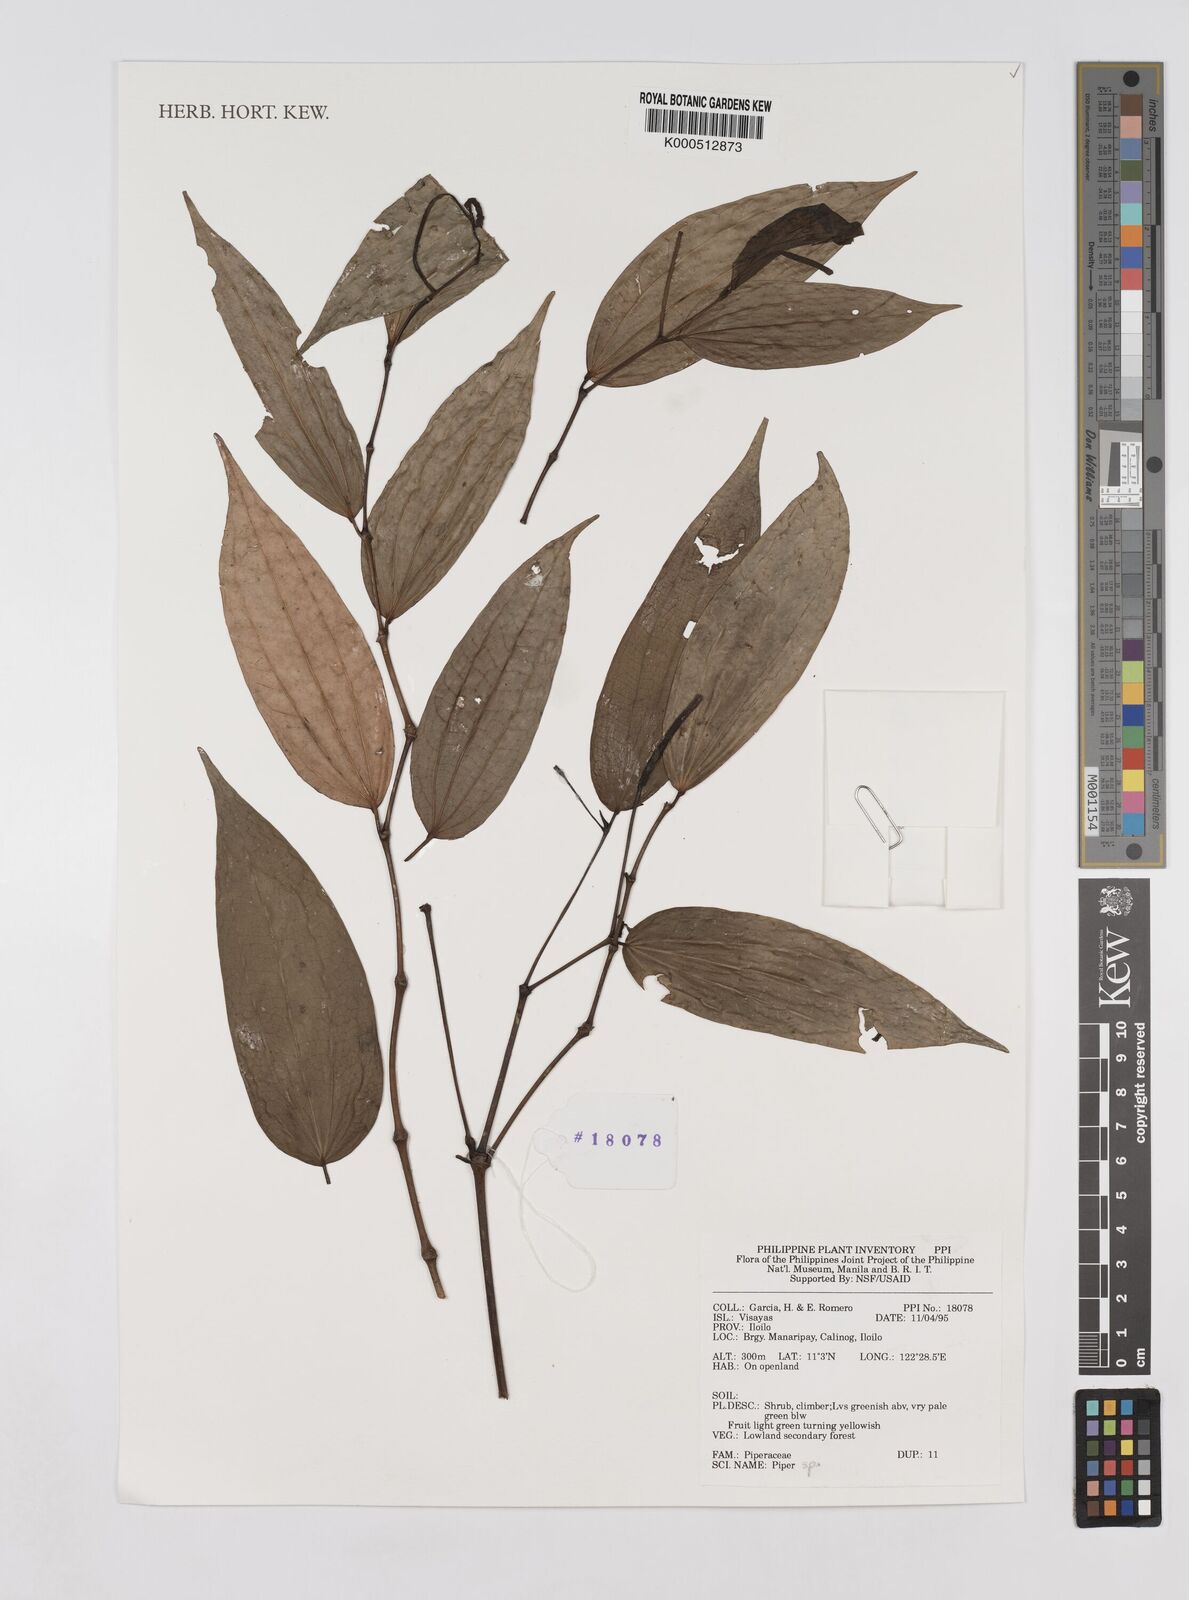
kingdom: Plantae
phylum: Tracheophyta
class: Magnoliopsida
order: Piperales
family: Piperaceae
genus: Piper
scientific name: Piper
